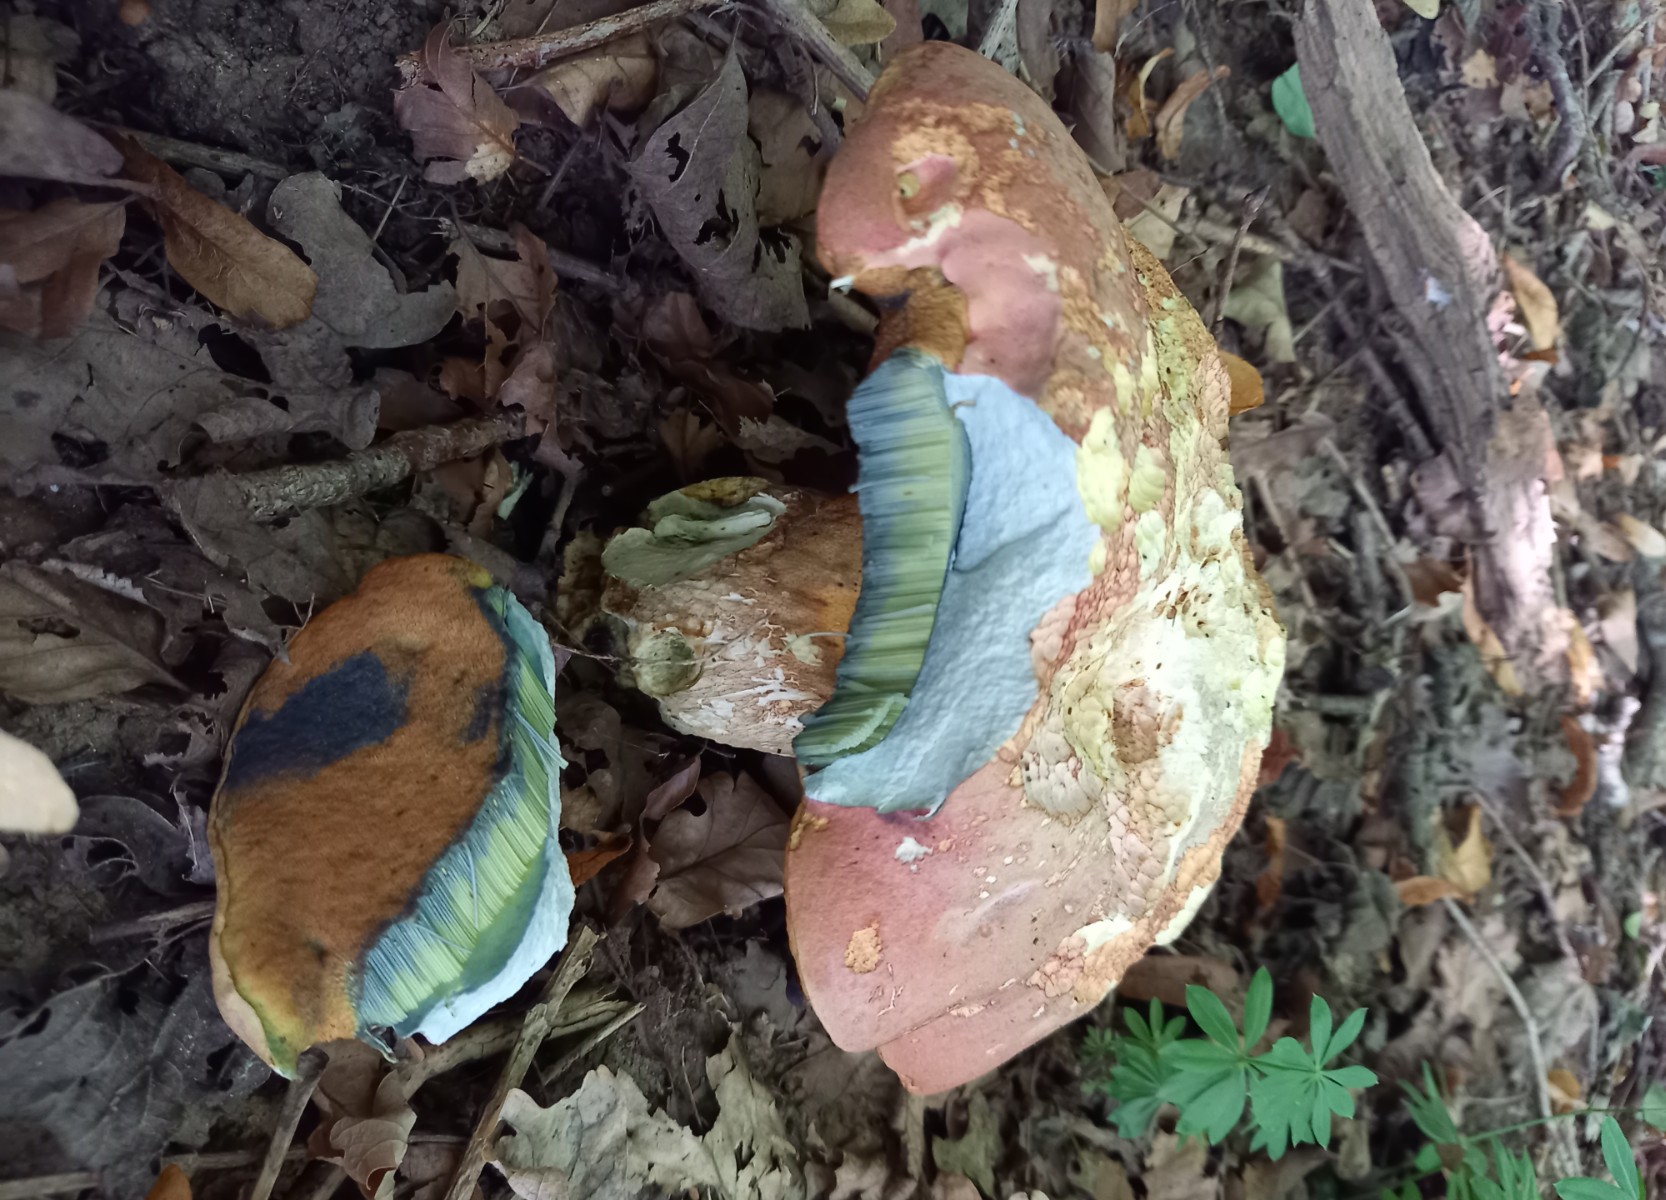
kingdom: Fungi
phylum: Basidiomycota
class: Agaricomycetes
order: Boletales
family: Boletaceae
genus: Rubroboletus
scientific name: Rubroboletus legaliae
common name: djævle-rørhat
